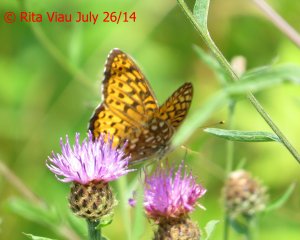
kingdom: Animalia
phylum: Arthropoda
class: Insecta
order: Lepidoptera
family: Nymphalidae
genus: Speyeria
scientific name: Speyeria atlantis
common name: Atlantis Fritillary
